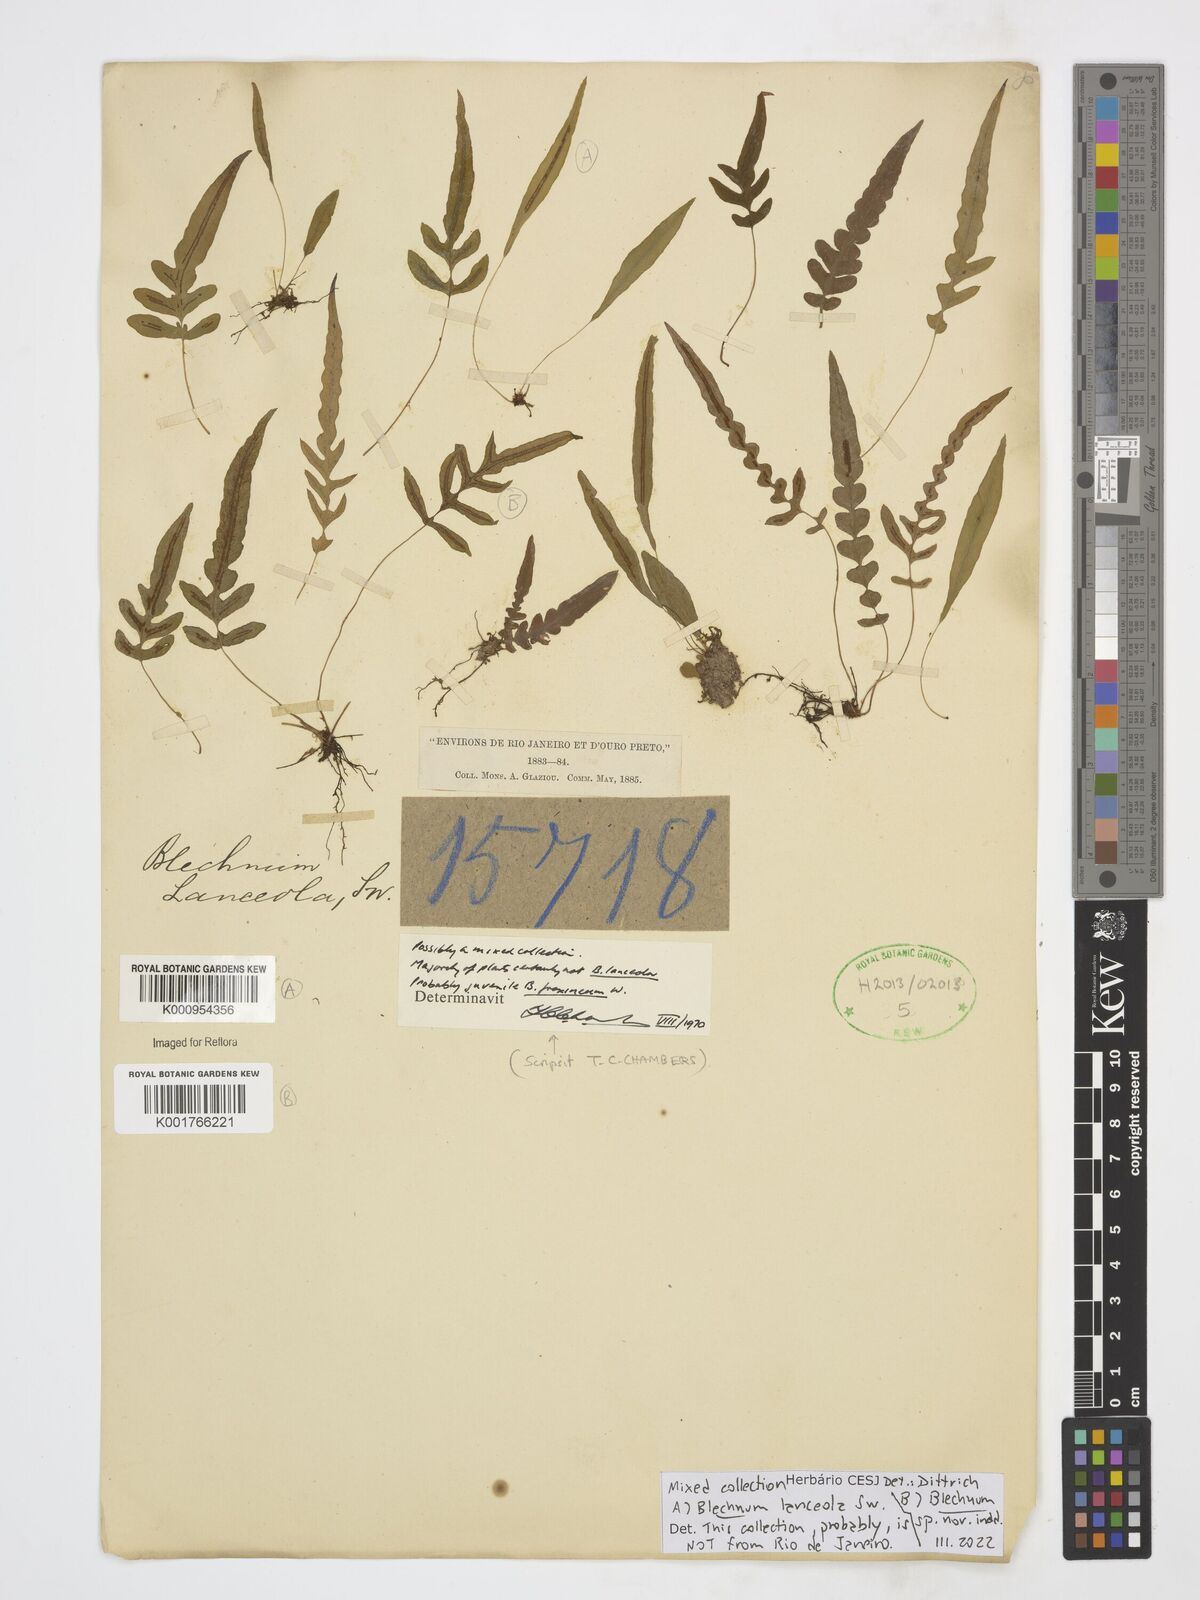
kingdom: Plantae
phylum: Tracheophyta
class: Polypodiopsida
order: Polypodiales
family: Blechnaceae
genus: Blechnum
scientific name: Blechnum
